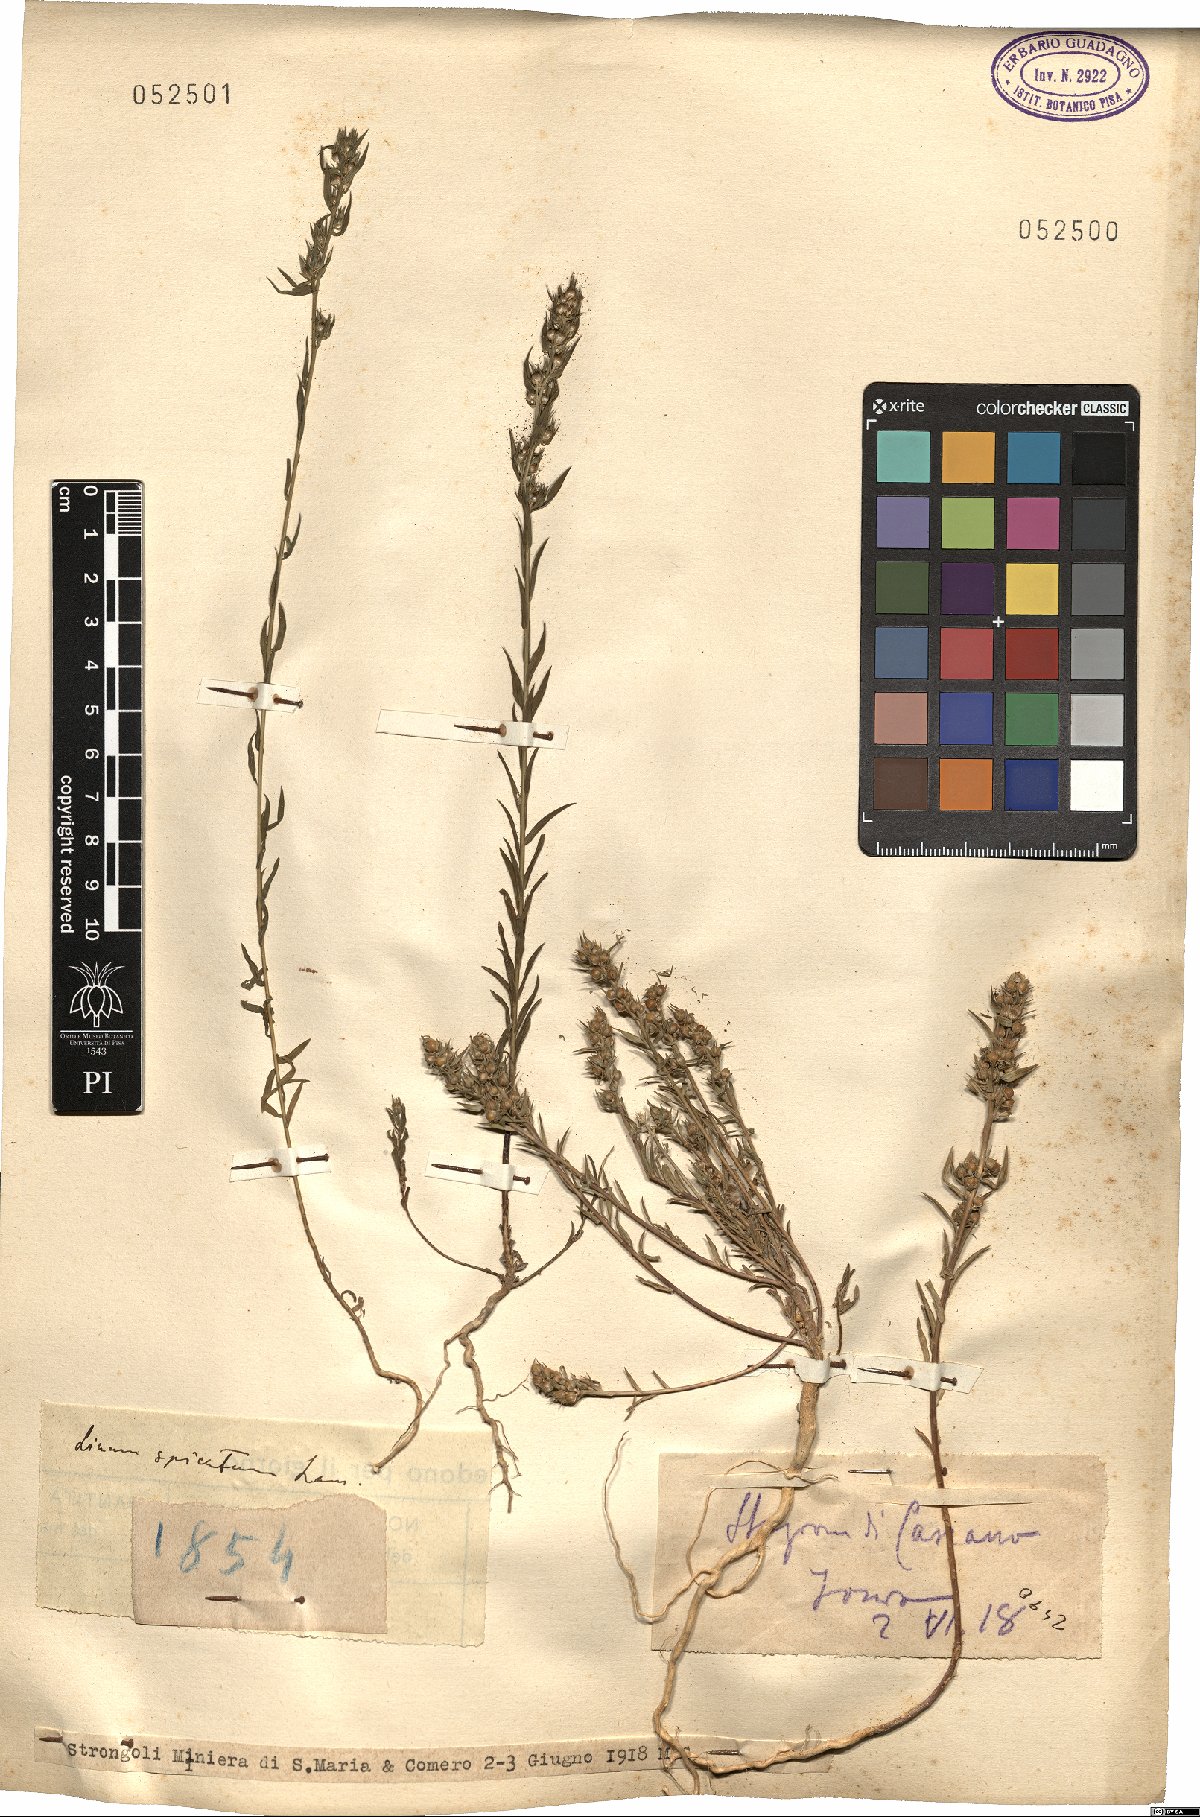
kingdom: Plantae
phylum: Tracheophyta
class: Magnoliopsida
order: Malpighiales
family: Linaceae
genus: Linum
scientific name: Linum
